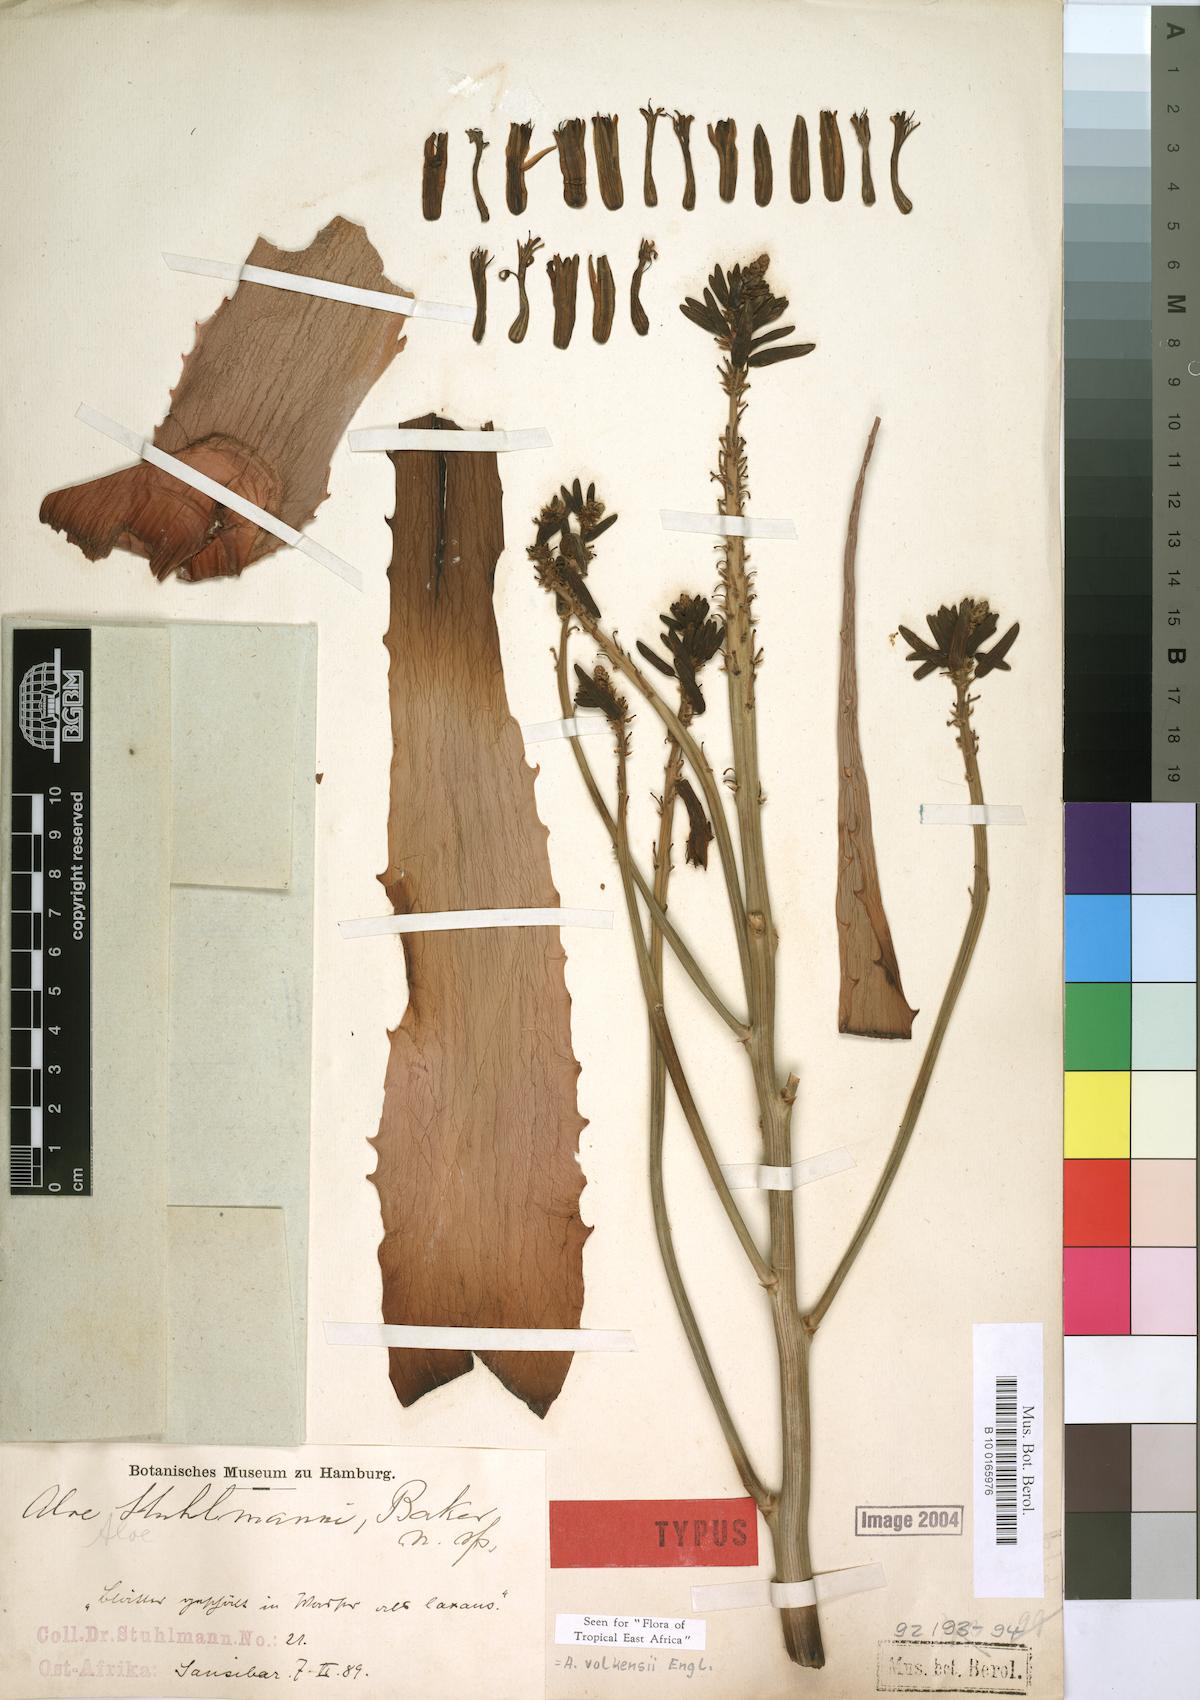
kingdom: Plantae
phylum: Tracheophyta
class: Liliopsida
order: Asparagales
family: Asphodelaceae
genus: Aloe
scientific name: Aloe volkensii
